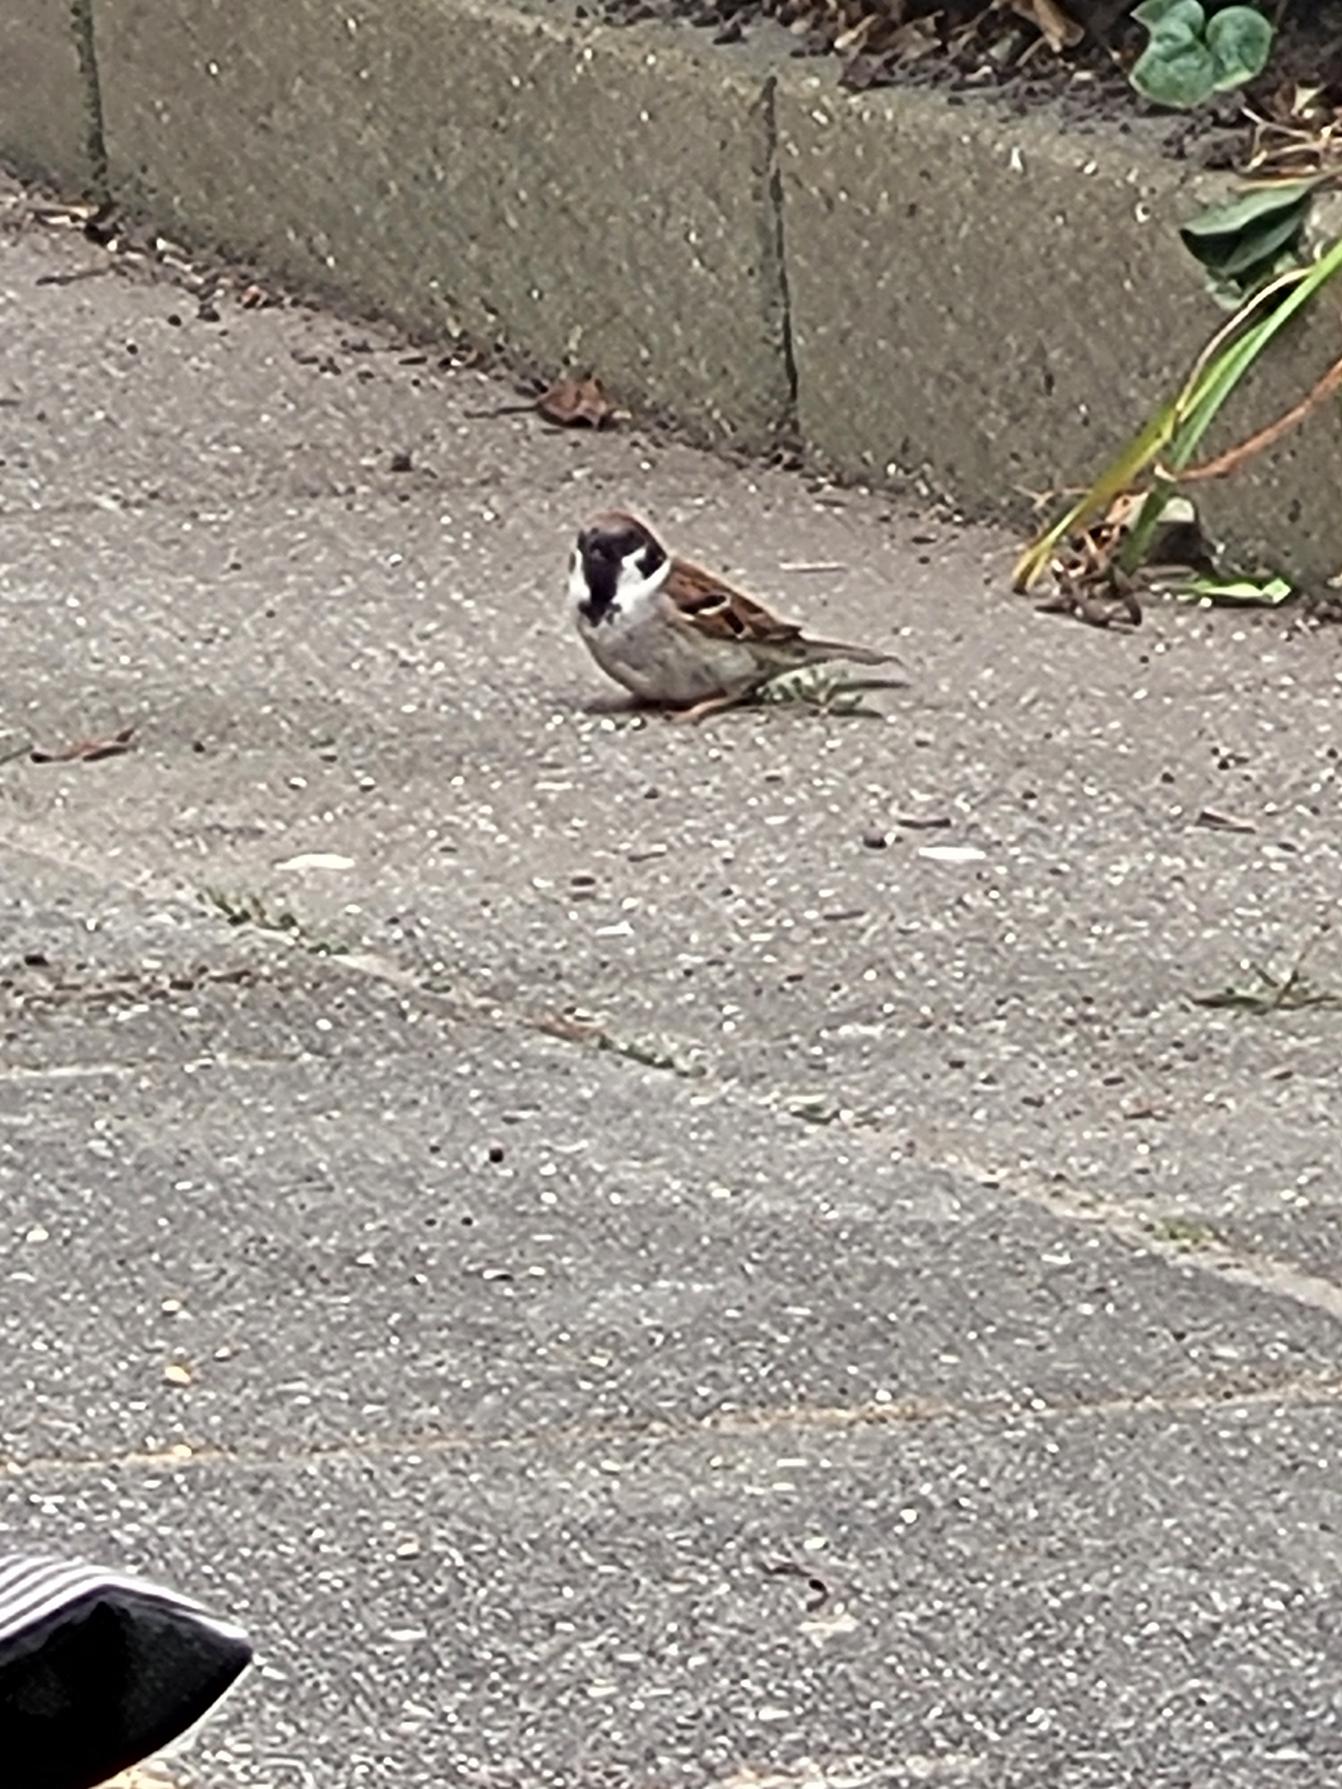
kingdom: Animalia
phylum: Chordata
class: Aves
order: Passeriformes
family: Passeridae
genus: Passer
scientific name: Passer montanus
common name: Skovspurv
